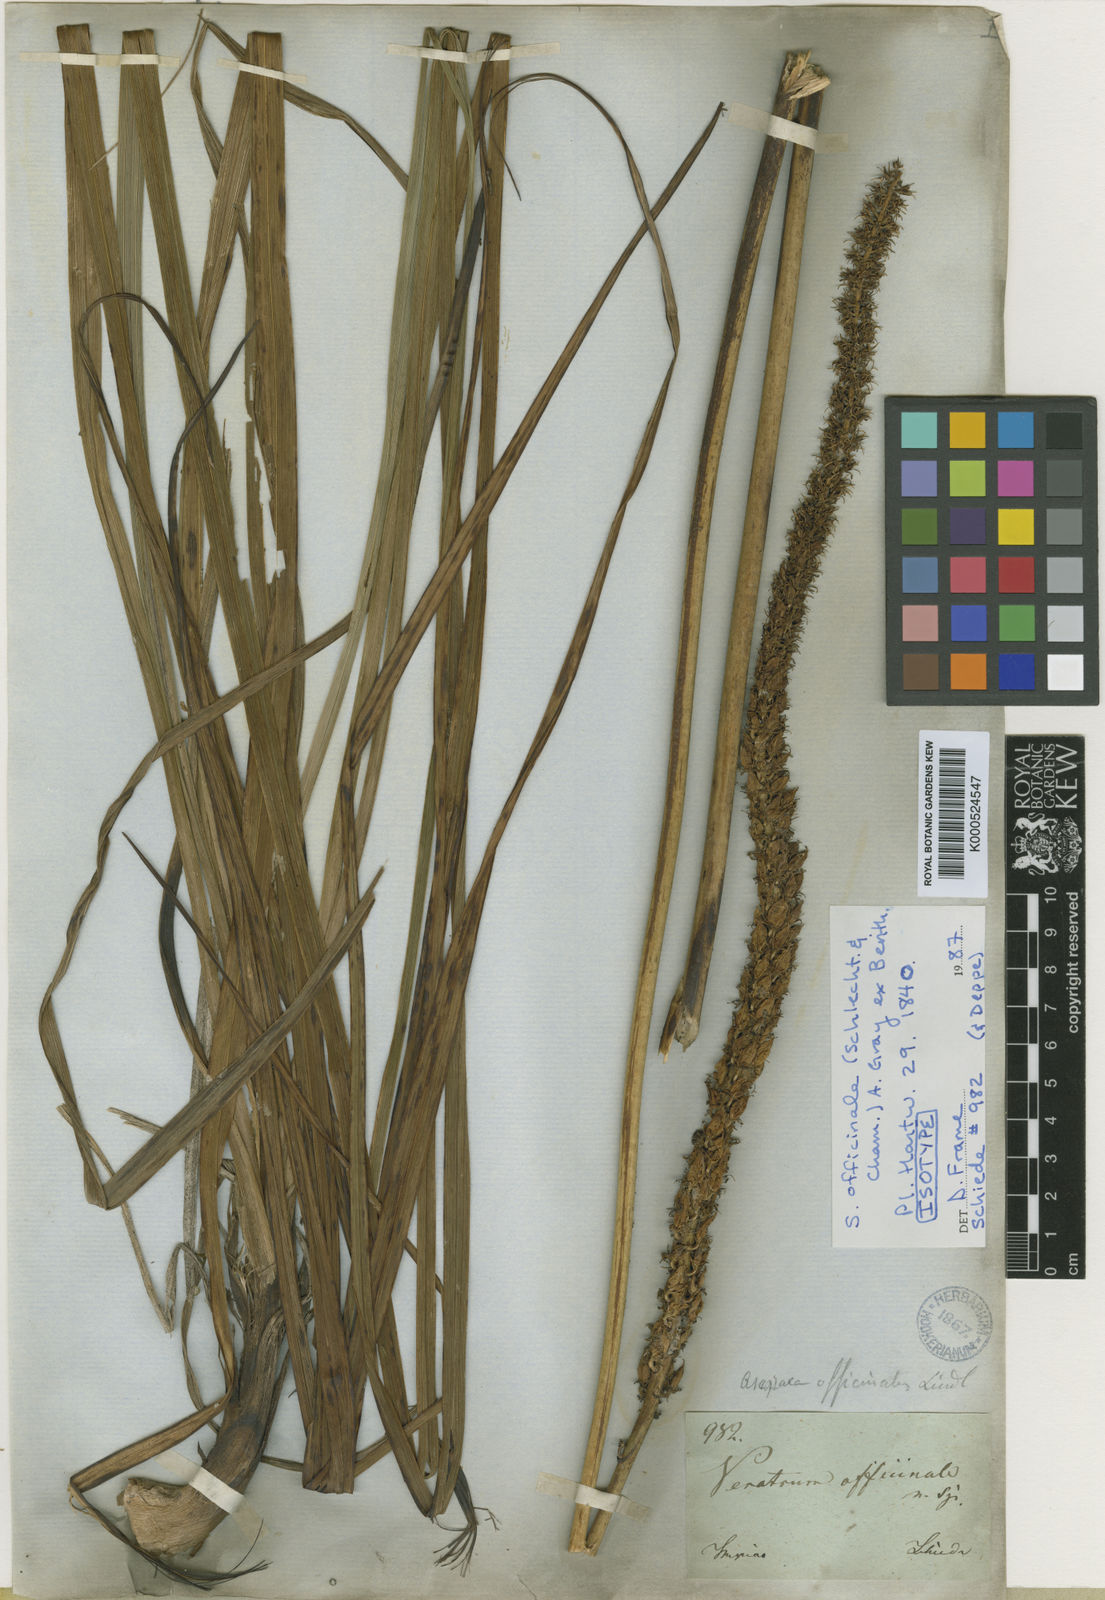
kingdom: Plantae
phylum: Tracheophyta
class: Liliopsida
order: Liliales
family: Melanthiaceae
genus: Schoenocaulon
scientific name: Schoenocaulon officinale
